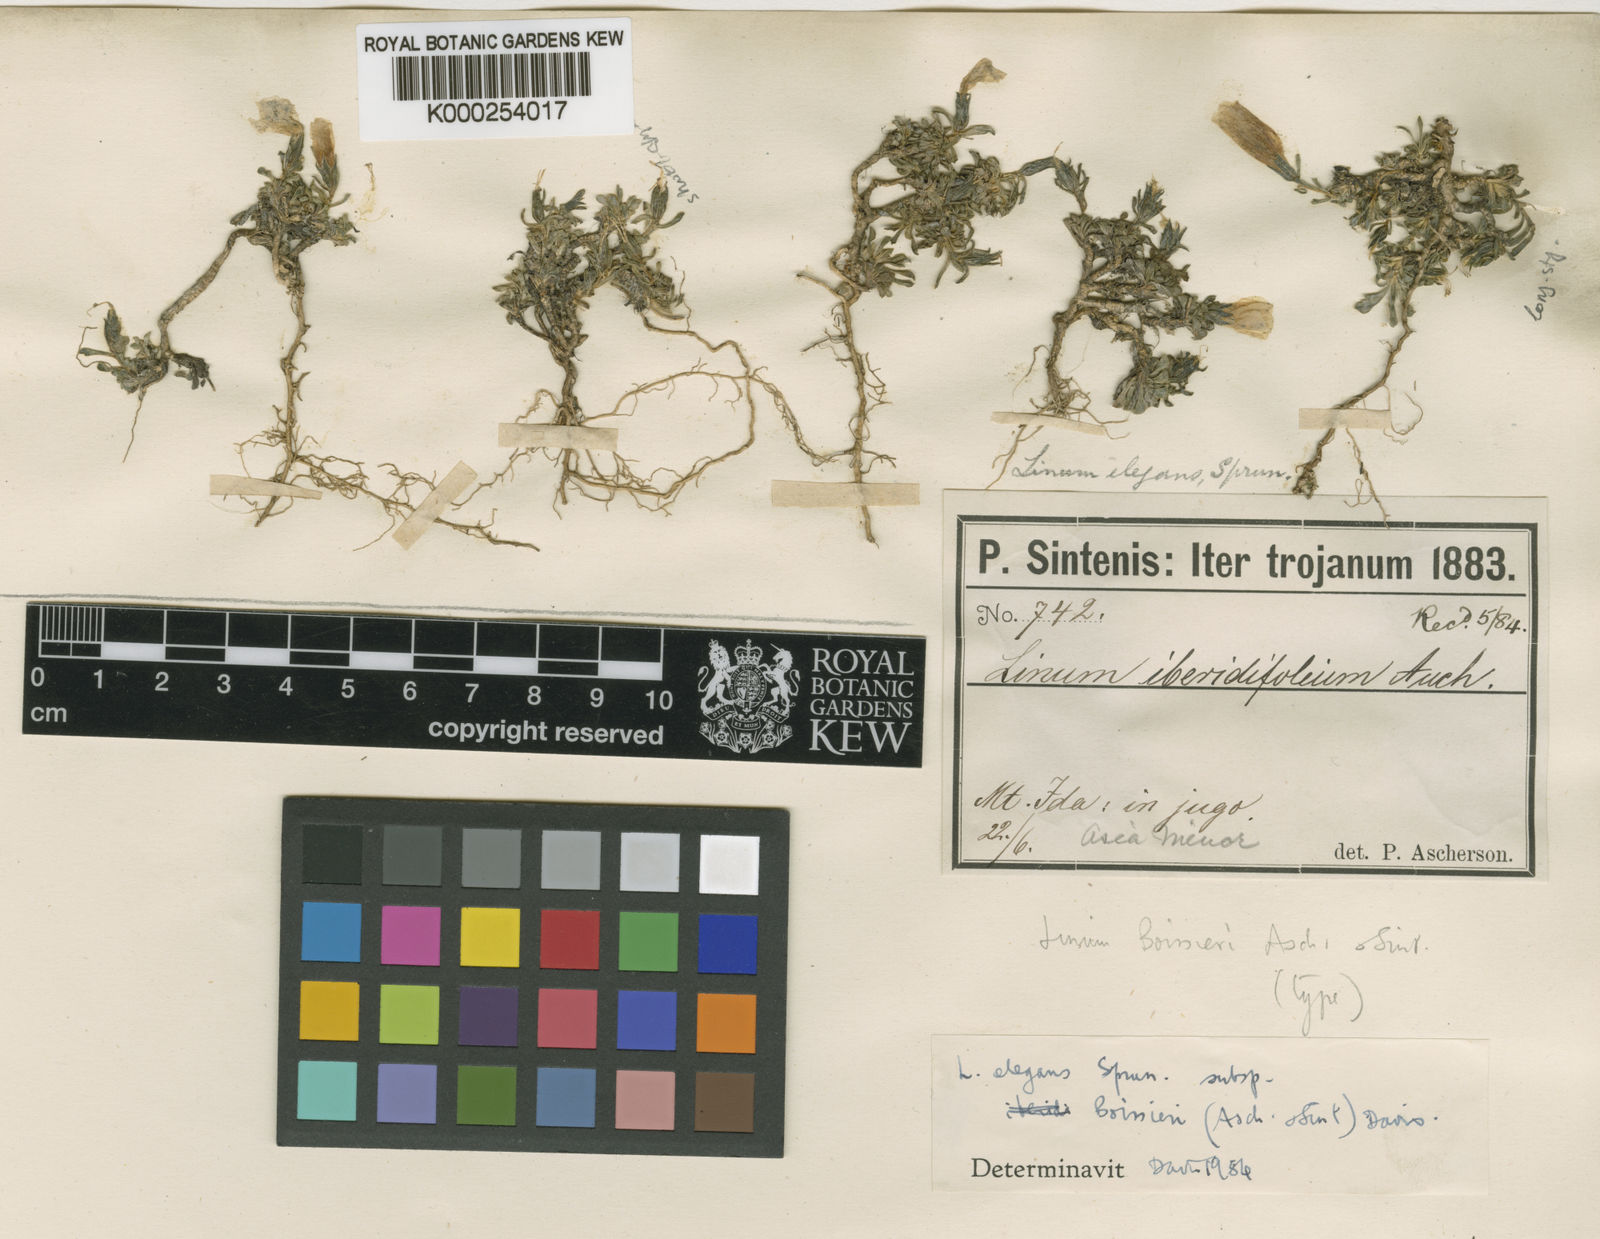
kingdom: Plantae
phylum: Tracheophyta
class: Magnoliopsida
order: Malpighiales
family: Linaceae
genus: Linum
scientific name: Linum boissieri
